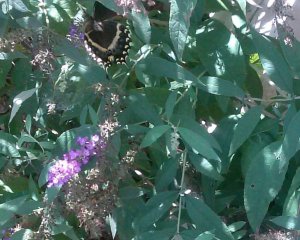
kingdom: Animalia
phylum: Arthropoda
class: Insecta
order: Lepidoptera
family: Papilionidae
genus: Pterourus
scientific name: Pterourus palamedes
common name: Palamedes Swallowtail
